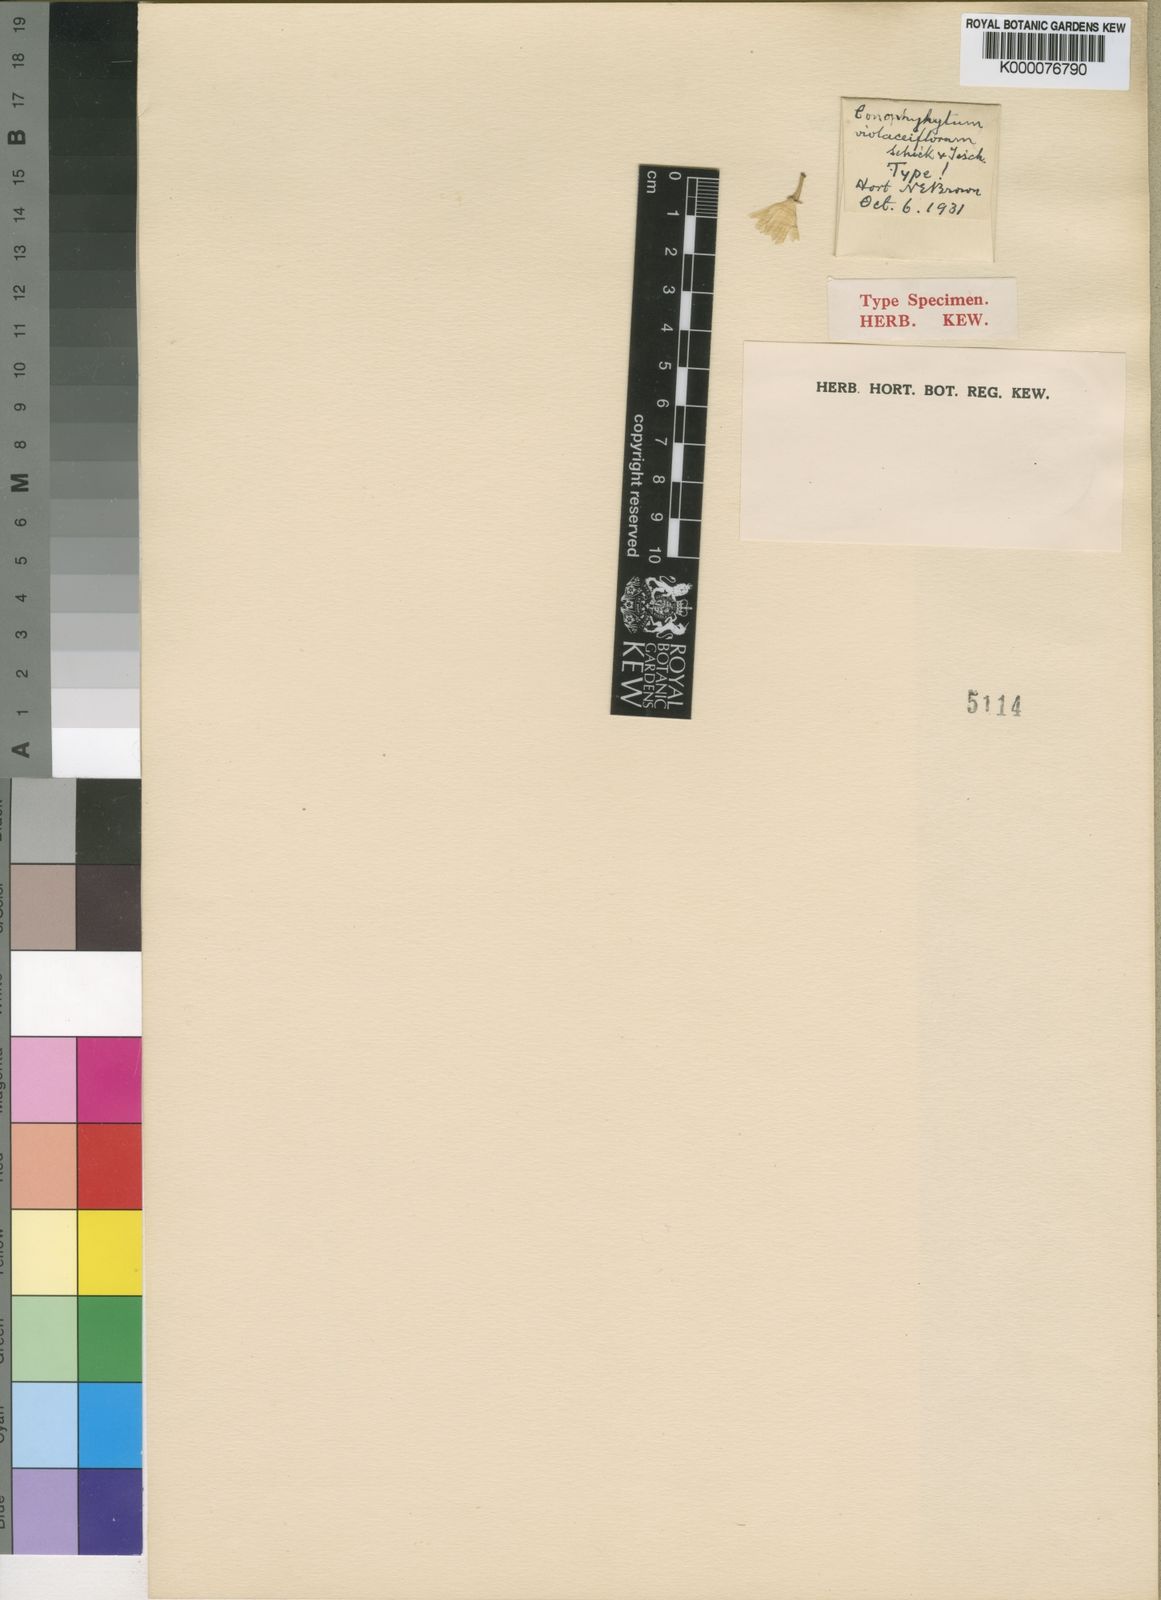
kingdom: Plantae
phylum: Tracheophyta
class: Magnoliopsida
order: Caryophyllales
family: Aizoaceae
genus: Conophytum
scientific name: Conophytum violaciflorum
